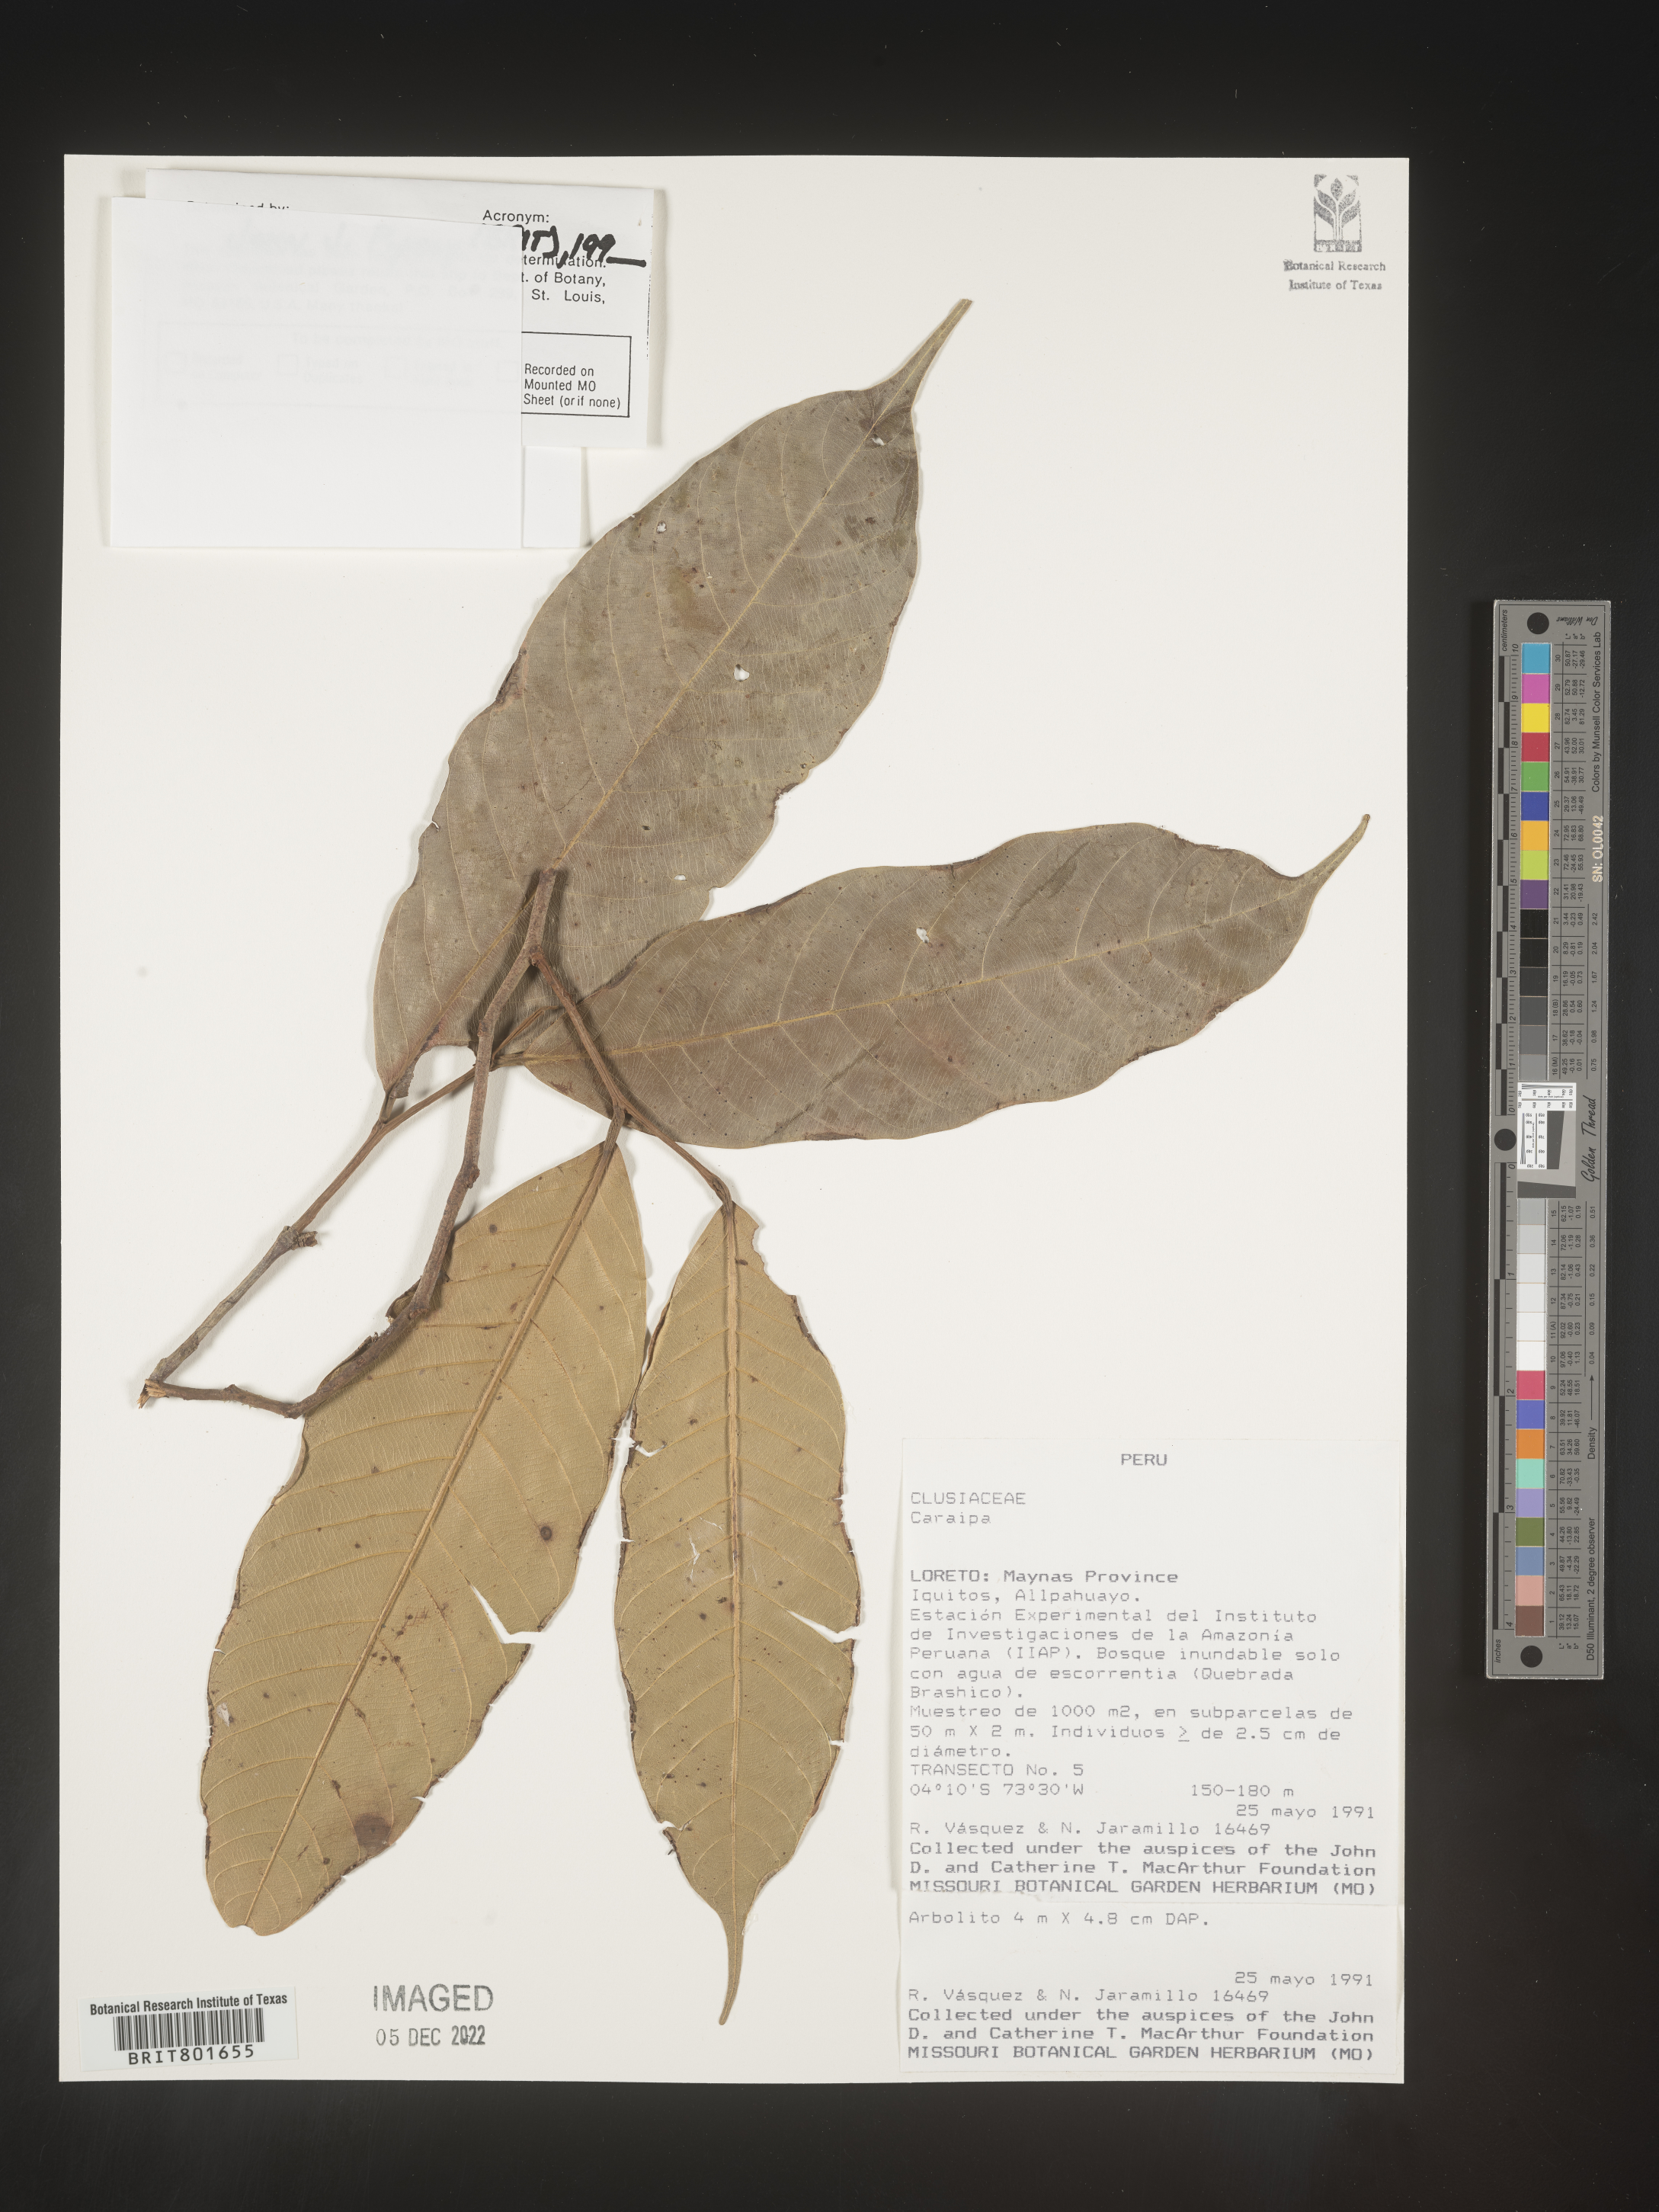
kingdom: Plantae
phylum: Tracheophyta
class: Magnoliopsida
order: Malpighiales
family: Calophyllaceae
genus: Caraipa
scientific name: Caraipa
